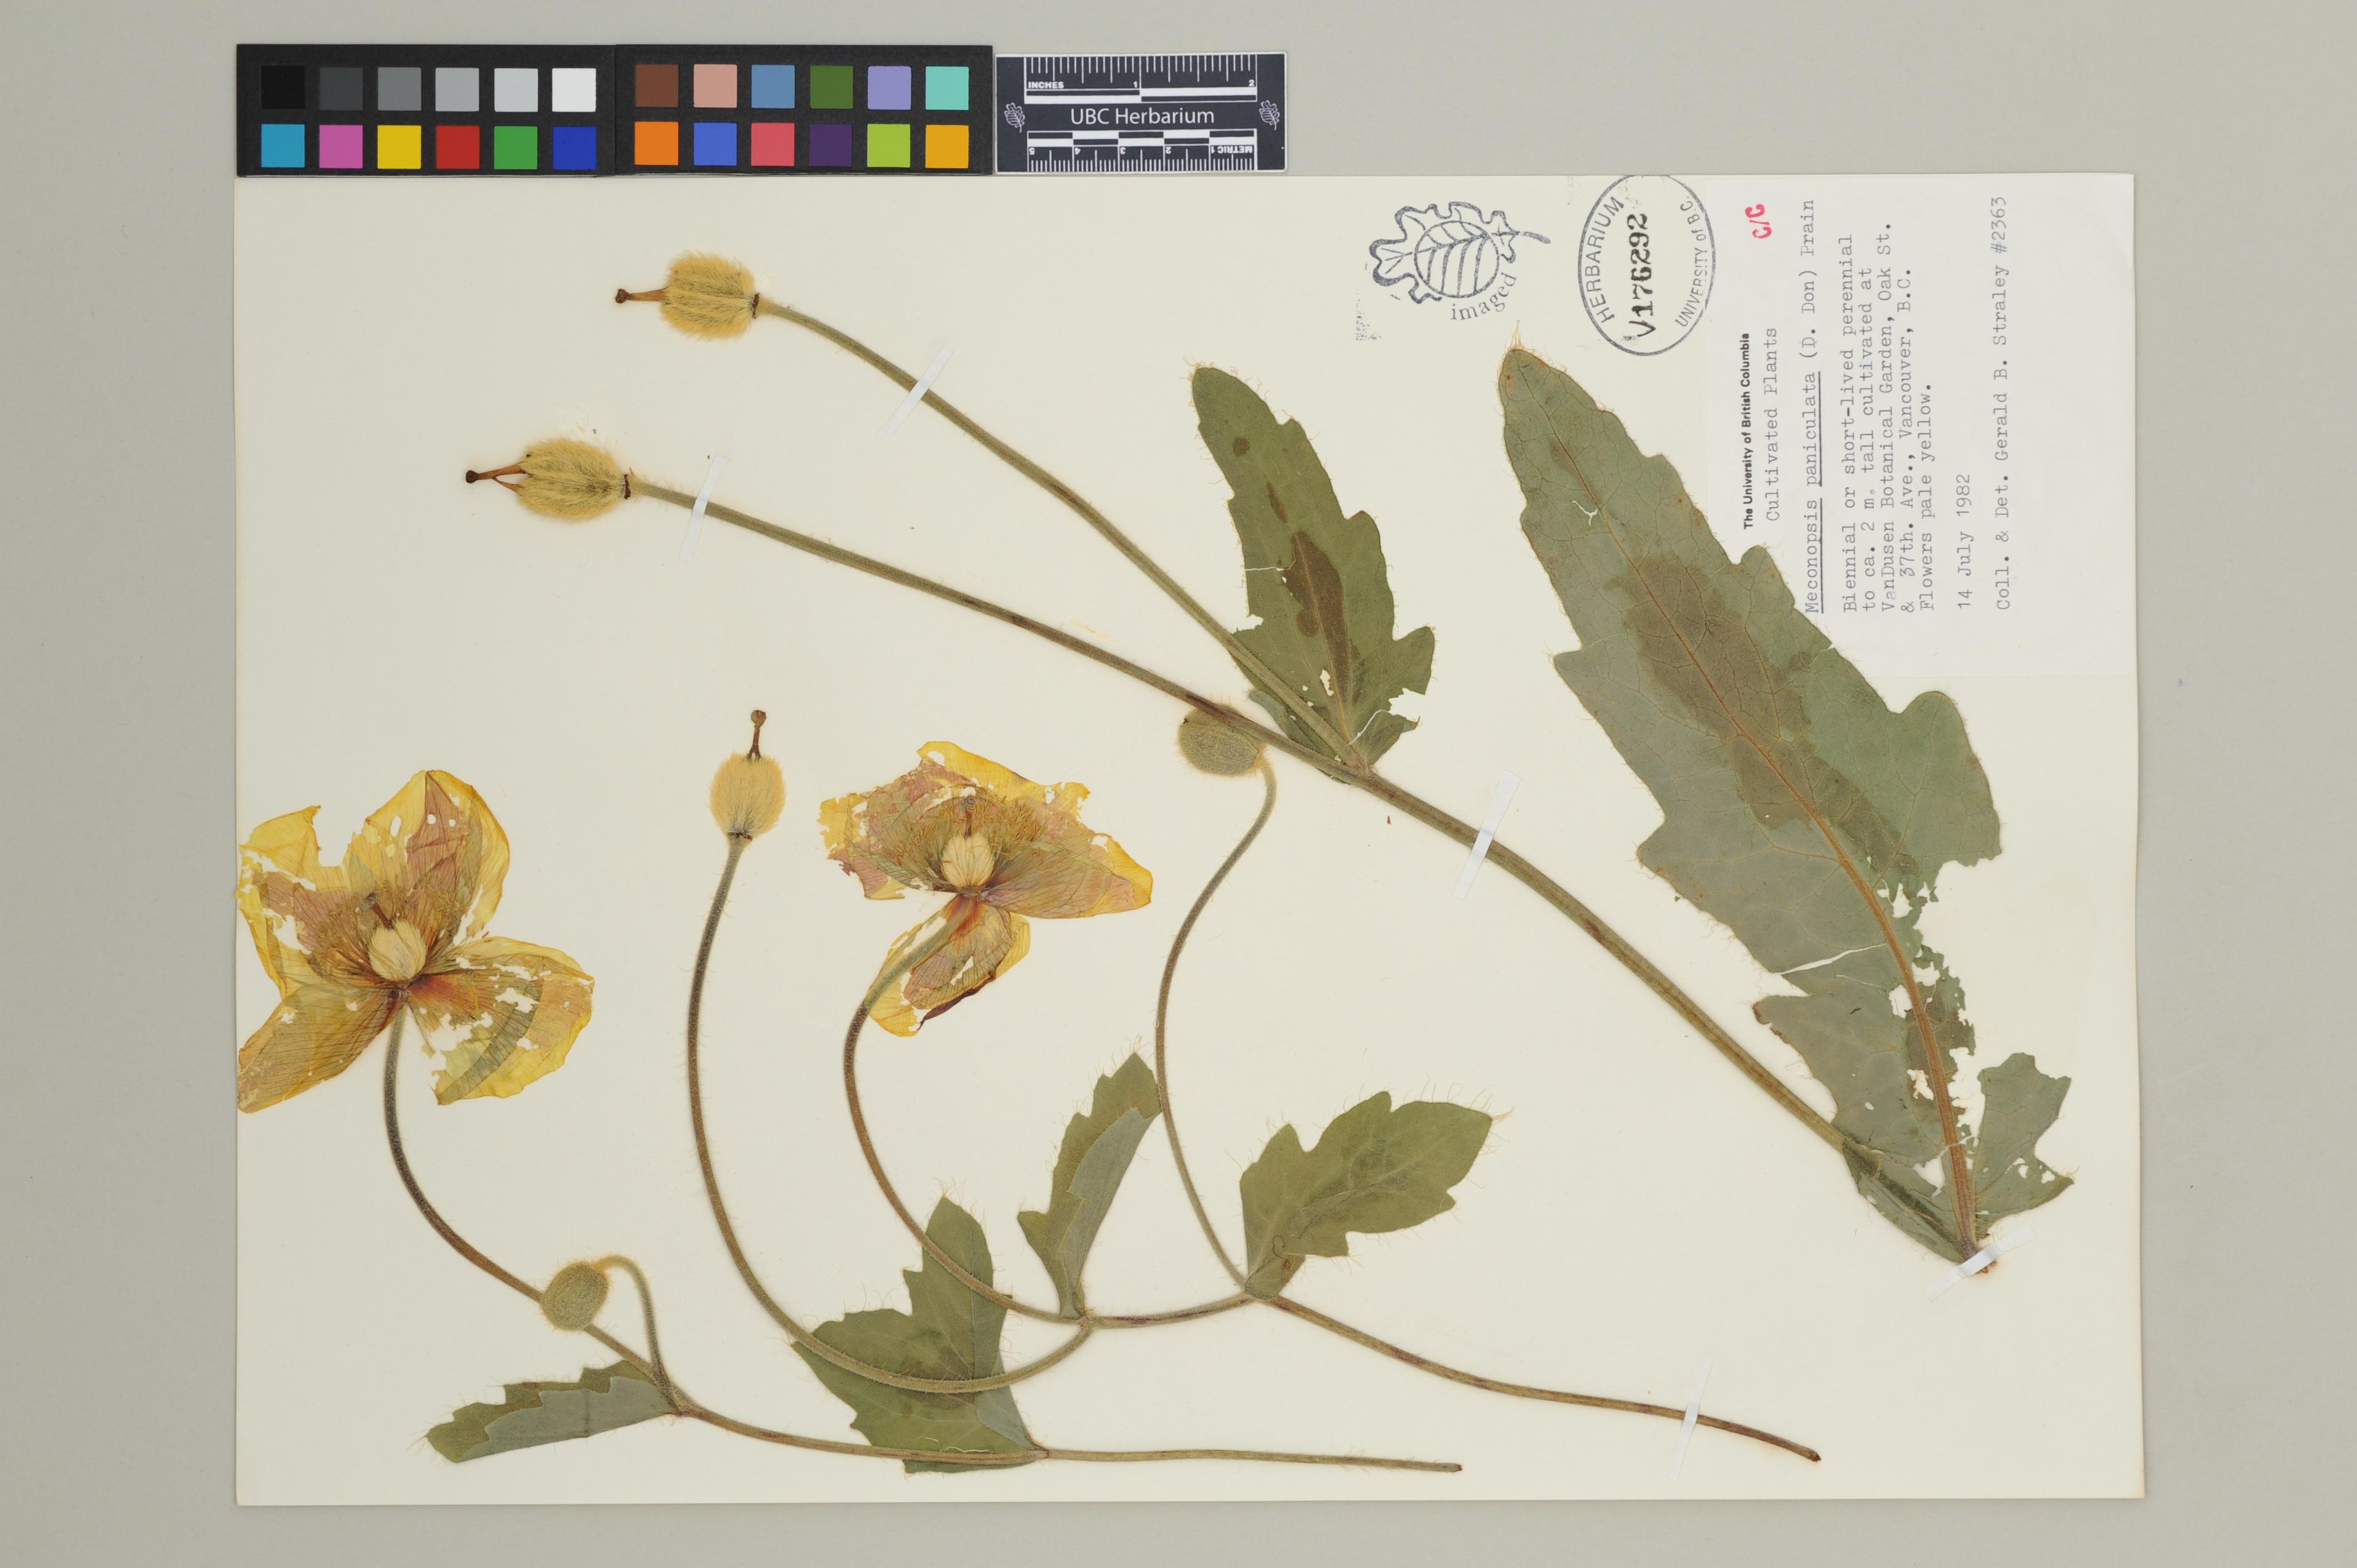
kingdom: Plantae
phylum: Tracheophyta
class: Magnoliopsida
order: Ranunculales
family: Papaveraceae
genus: Meconopsis
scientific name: Meconopsis paniculata
